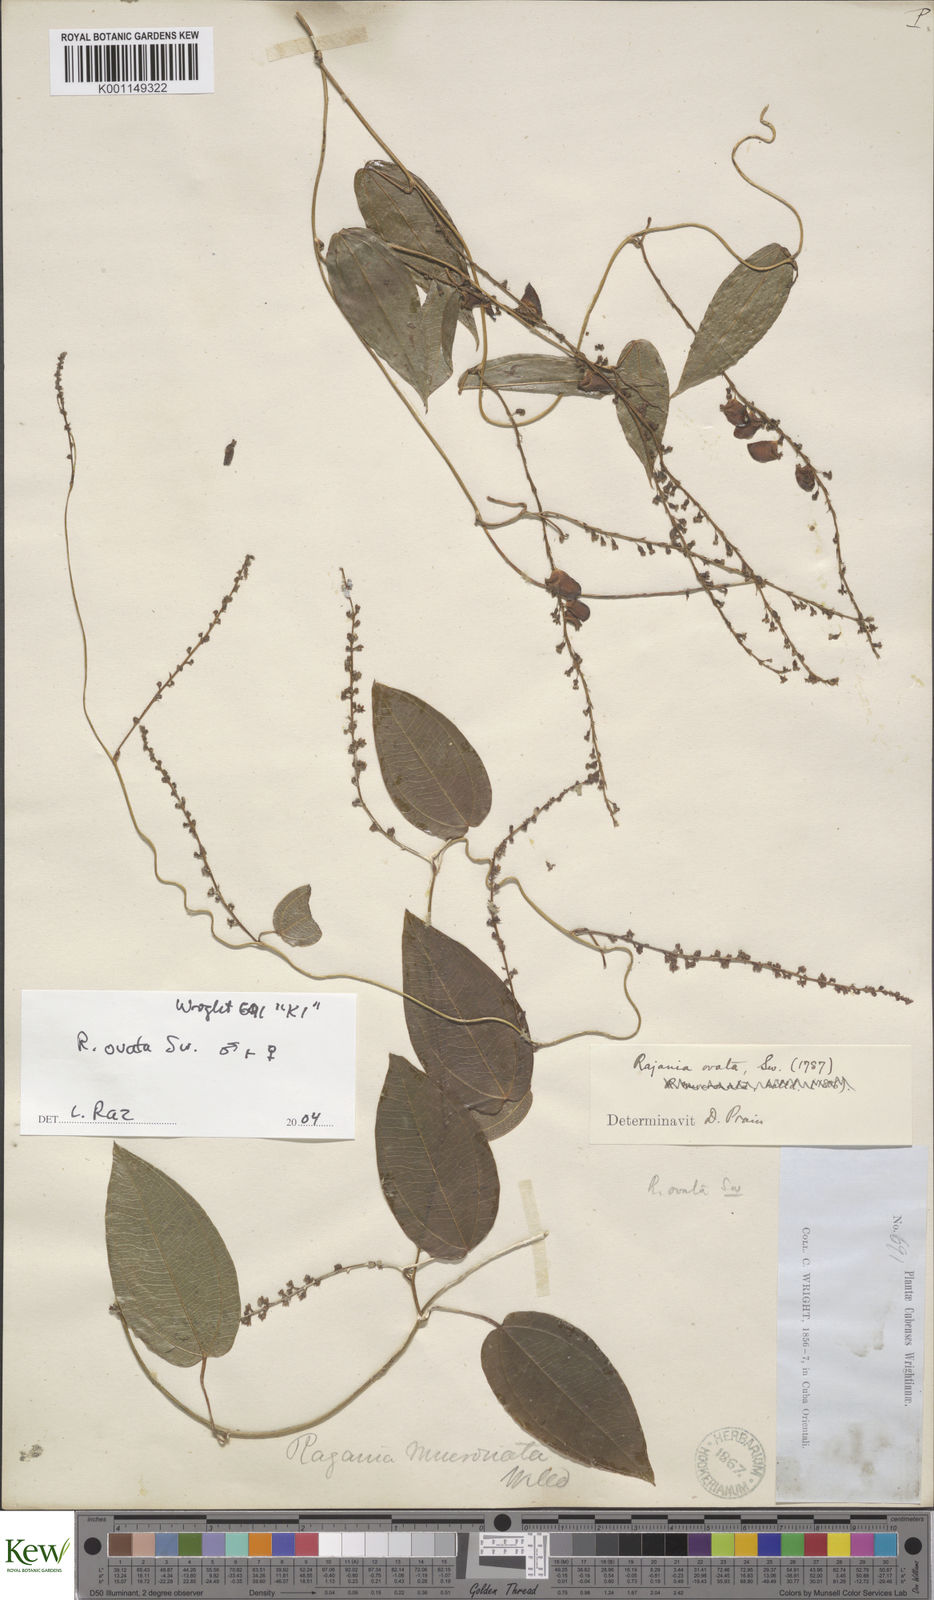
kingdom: Plantae
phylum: Tracheophyta
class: Liliopsida
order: Dioscoreales
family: Dioscoreaceae
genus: Dioscorea
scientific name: Dioscorea ovata
